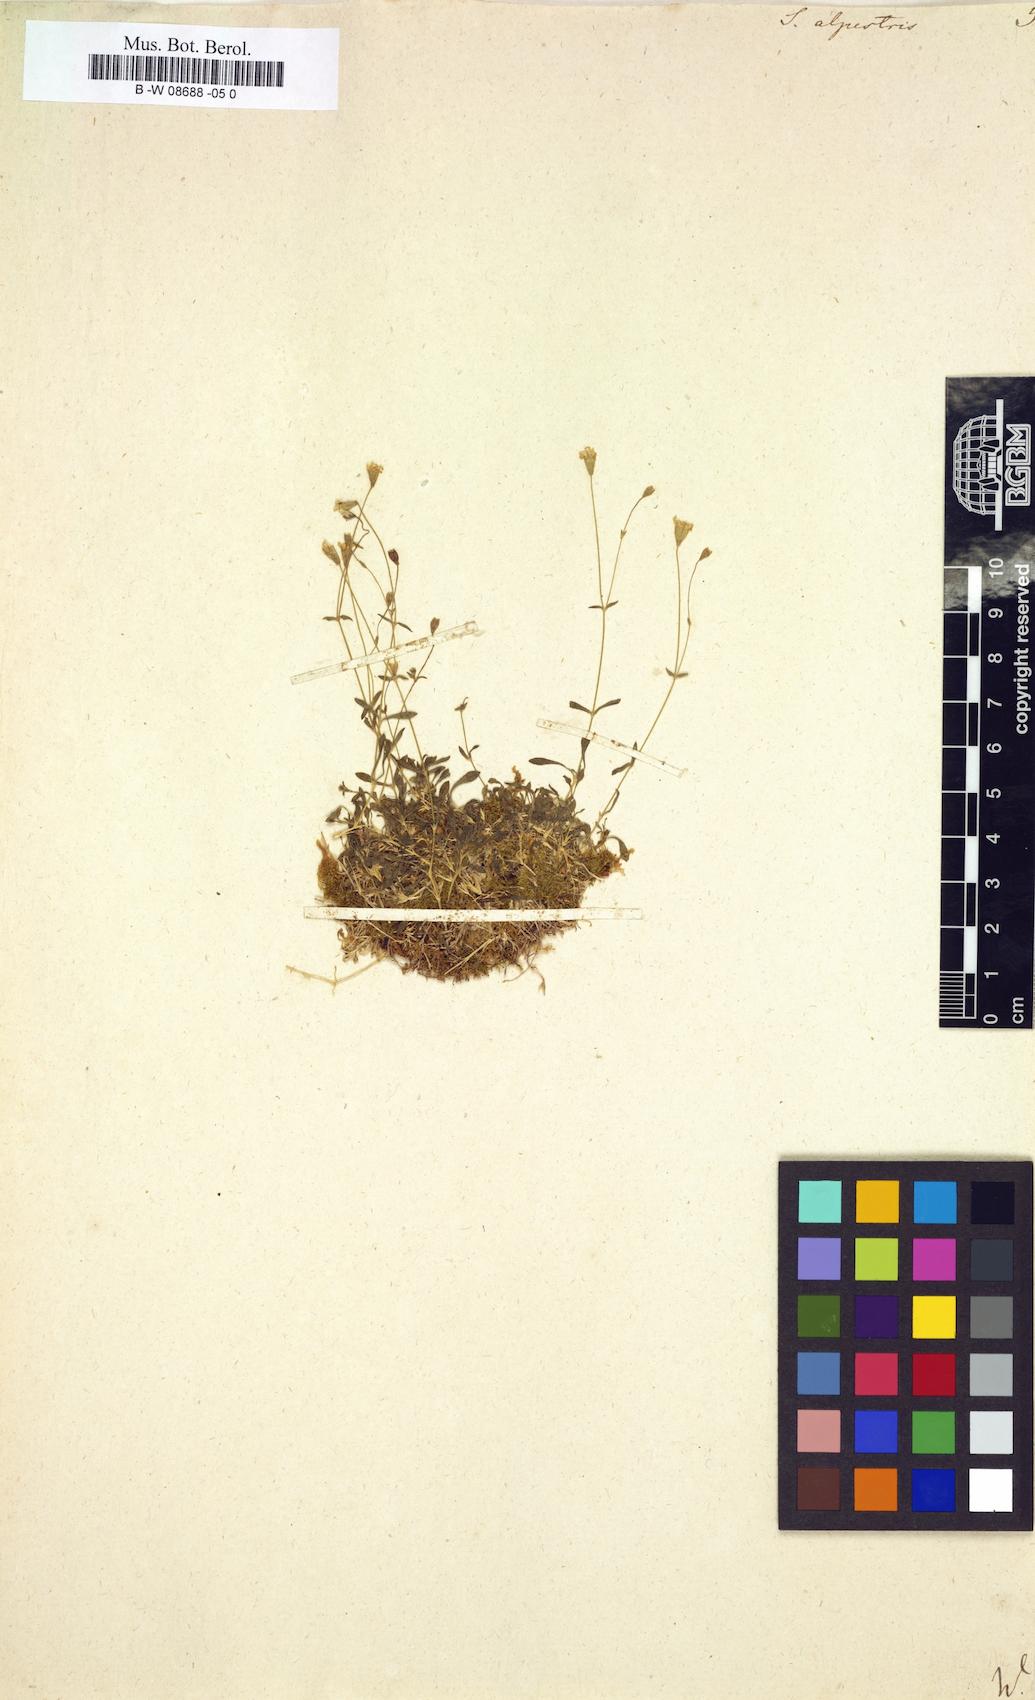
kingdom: Plantae
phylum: Tracheophyta
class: Magnoliopsida
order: Caryophyllales
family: Caryophyllaceae
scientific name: Caryophyllaceae
